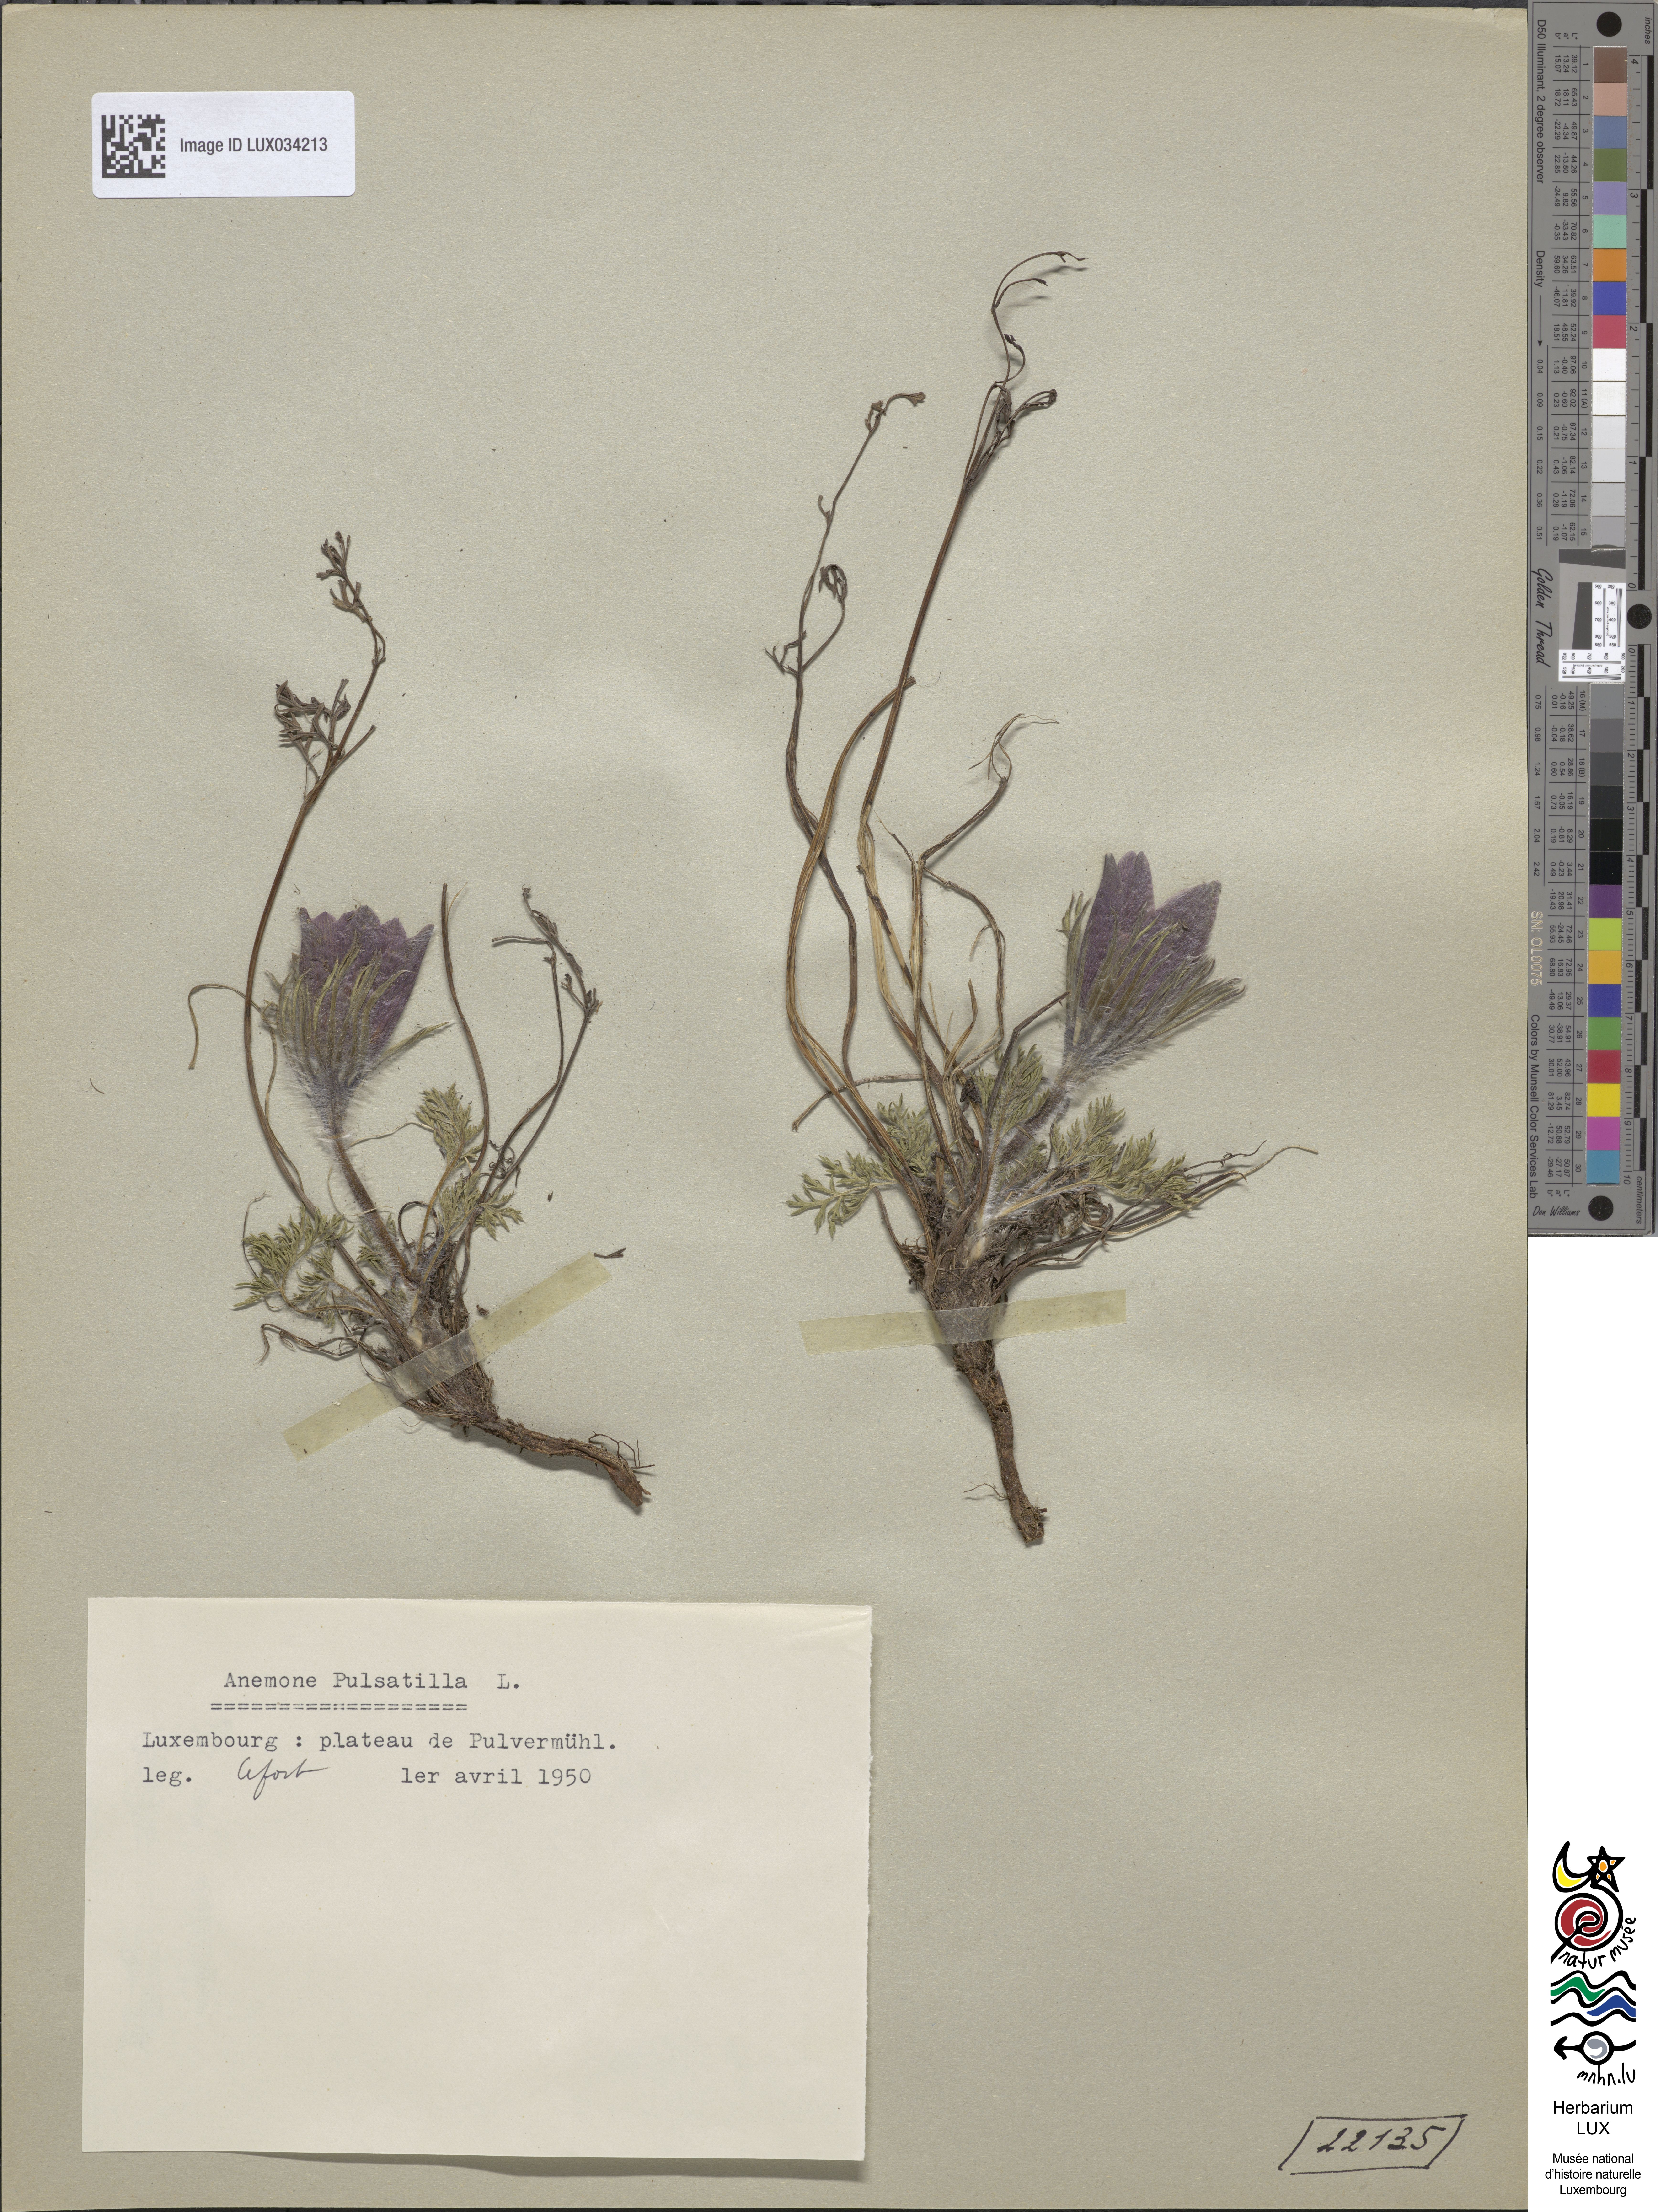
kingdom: Plantae
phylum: Tracheophyta
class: Magnoliopsida
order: Ranunculales
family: Ranunculaceae
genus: Pulsatilla
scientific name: Pulsatilla vulgaris
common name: Pasqueflower
